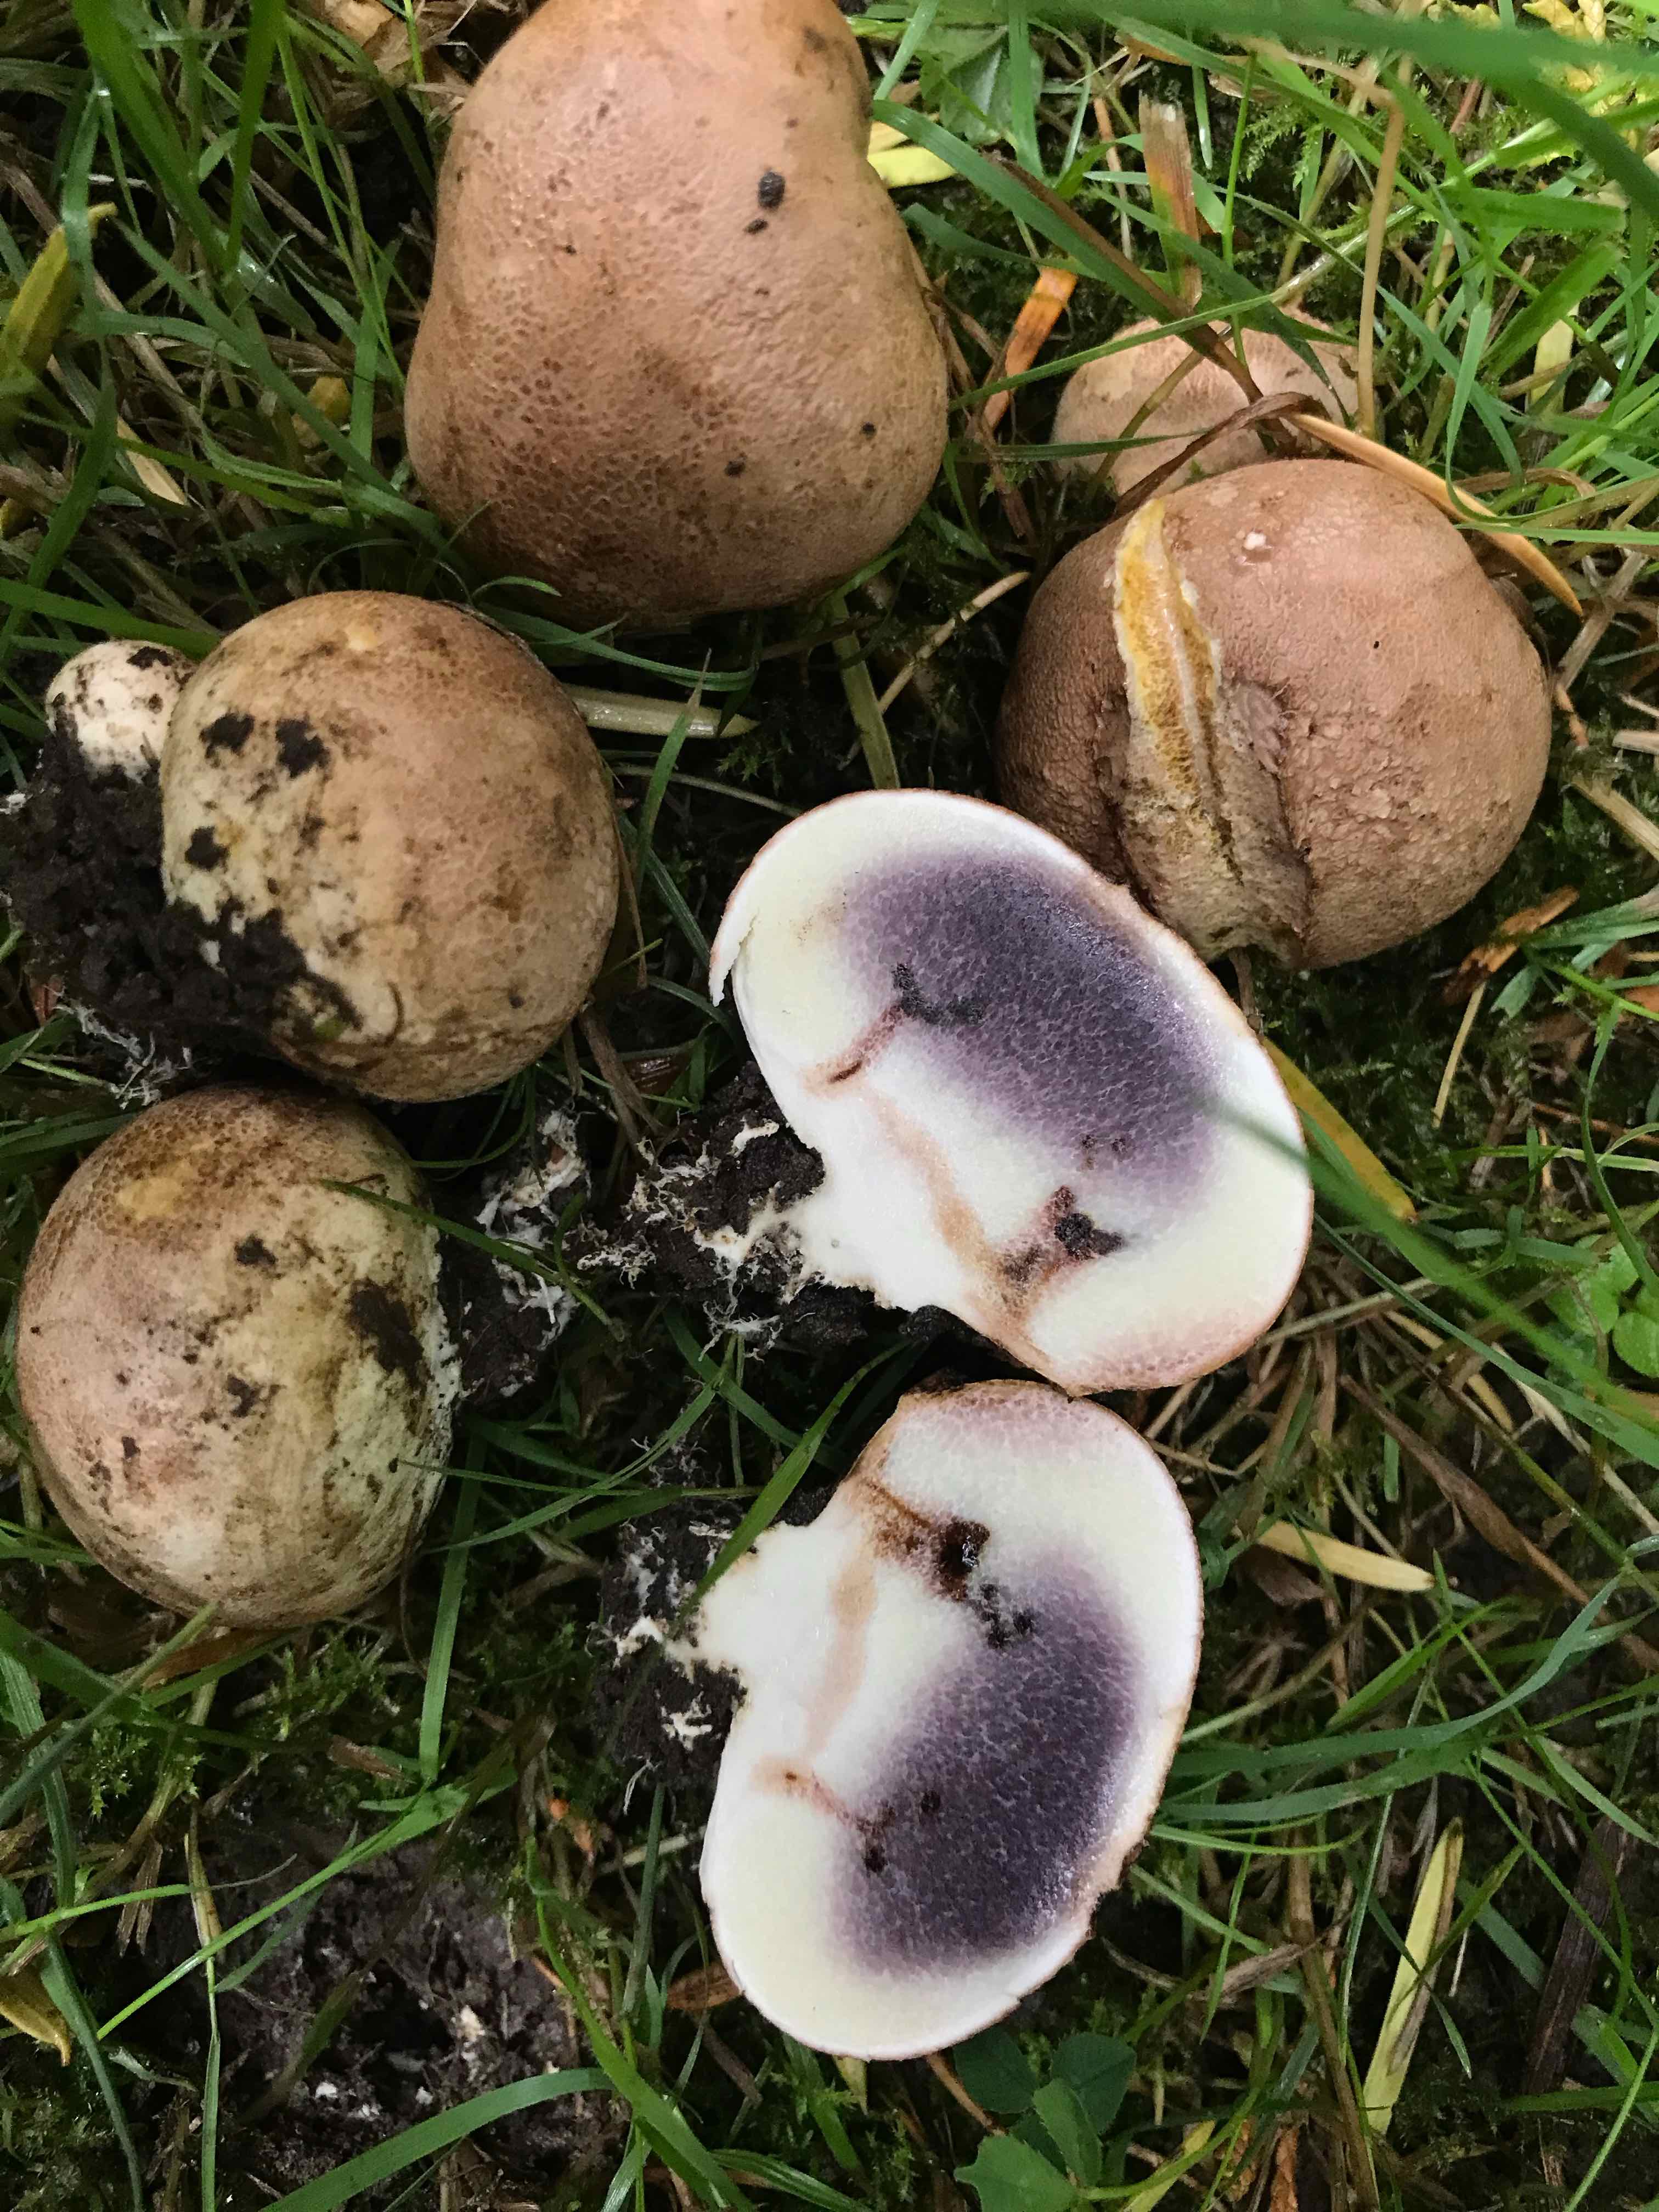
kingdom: Fungi
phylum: Basidiomycota
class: Agaricomycetes
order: Boletales
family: Sclerodermataceae
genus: Scleroderma
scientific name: Scleroderma citrinum
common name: almindelig bruskbold
